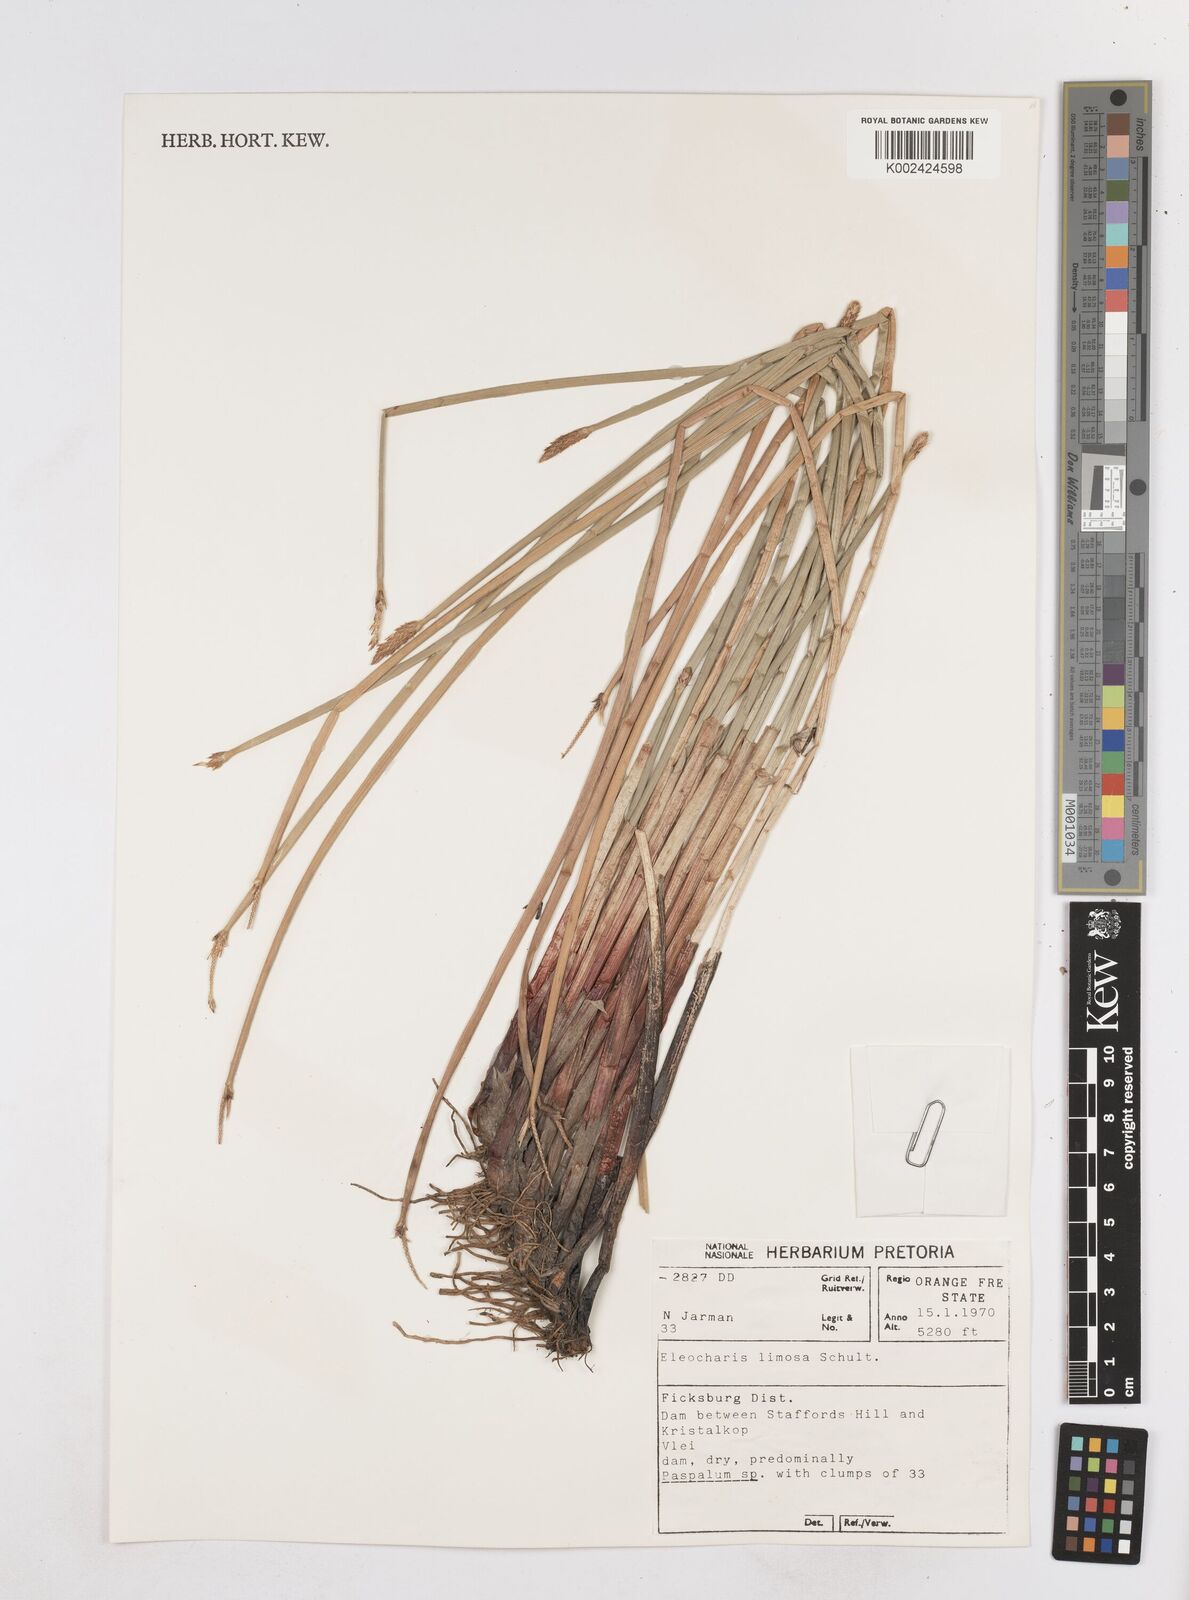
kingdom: Plantae
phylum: Tracheophyta
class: Liliopsida
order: Poales
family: Cyperaceae
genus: Eleocharis
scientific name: Eleocharis limosa
